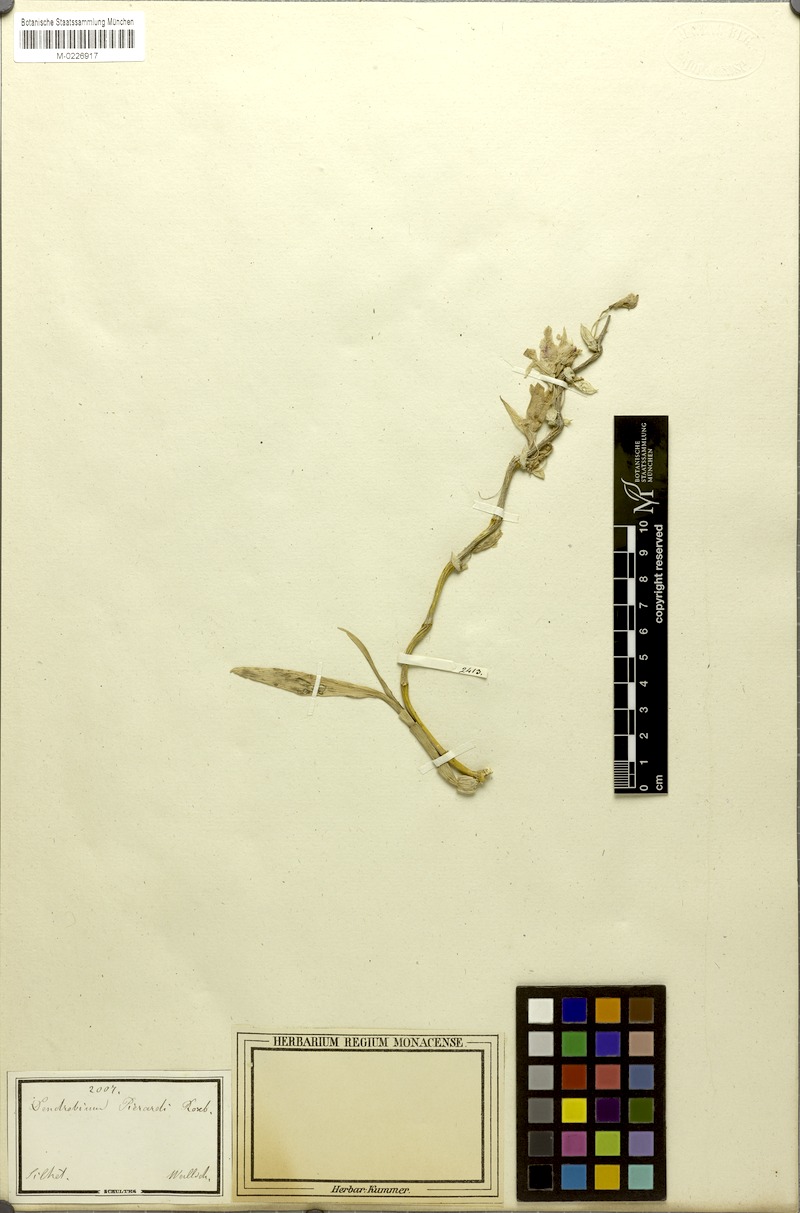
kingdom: Plantae
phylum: Tracheophyta
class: Liliopsida
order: Asparagales
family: Orchidaceae
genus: Dendrobium
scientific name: Dendrobium aphyllum
